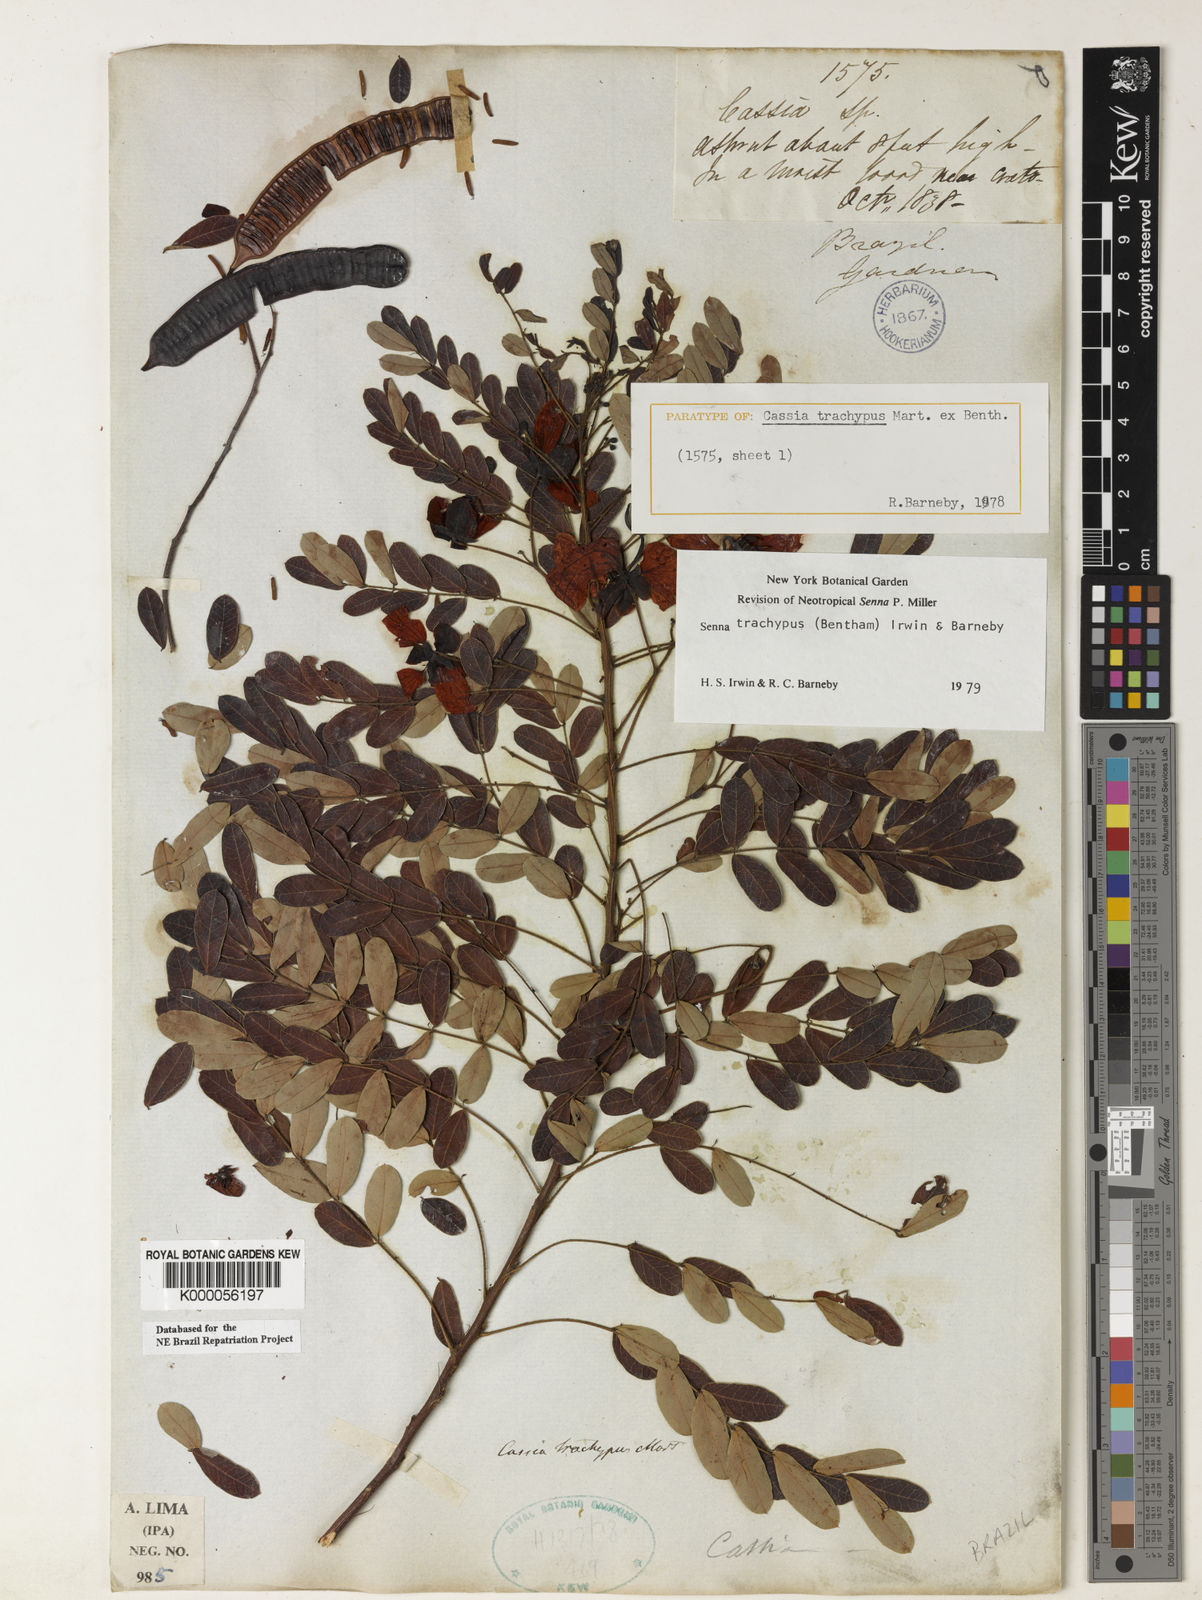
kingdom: Plantae
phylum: Tracheophyta
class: Magnoliopsida
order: Fabales
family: Fabaceae
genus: Senna
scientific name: Senna trachypus
